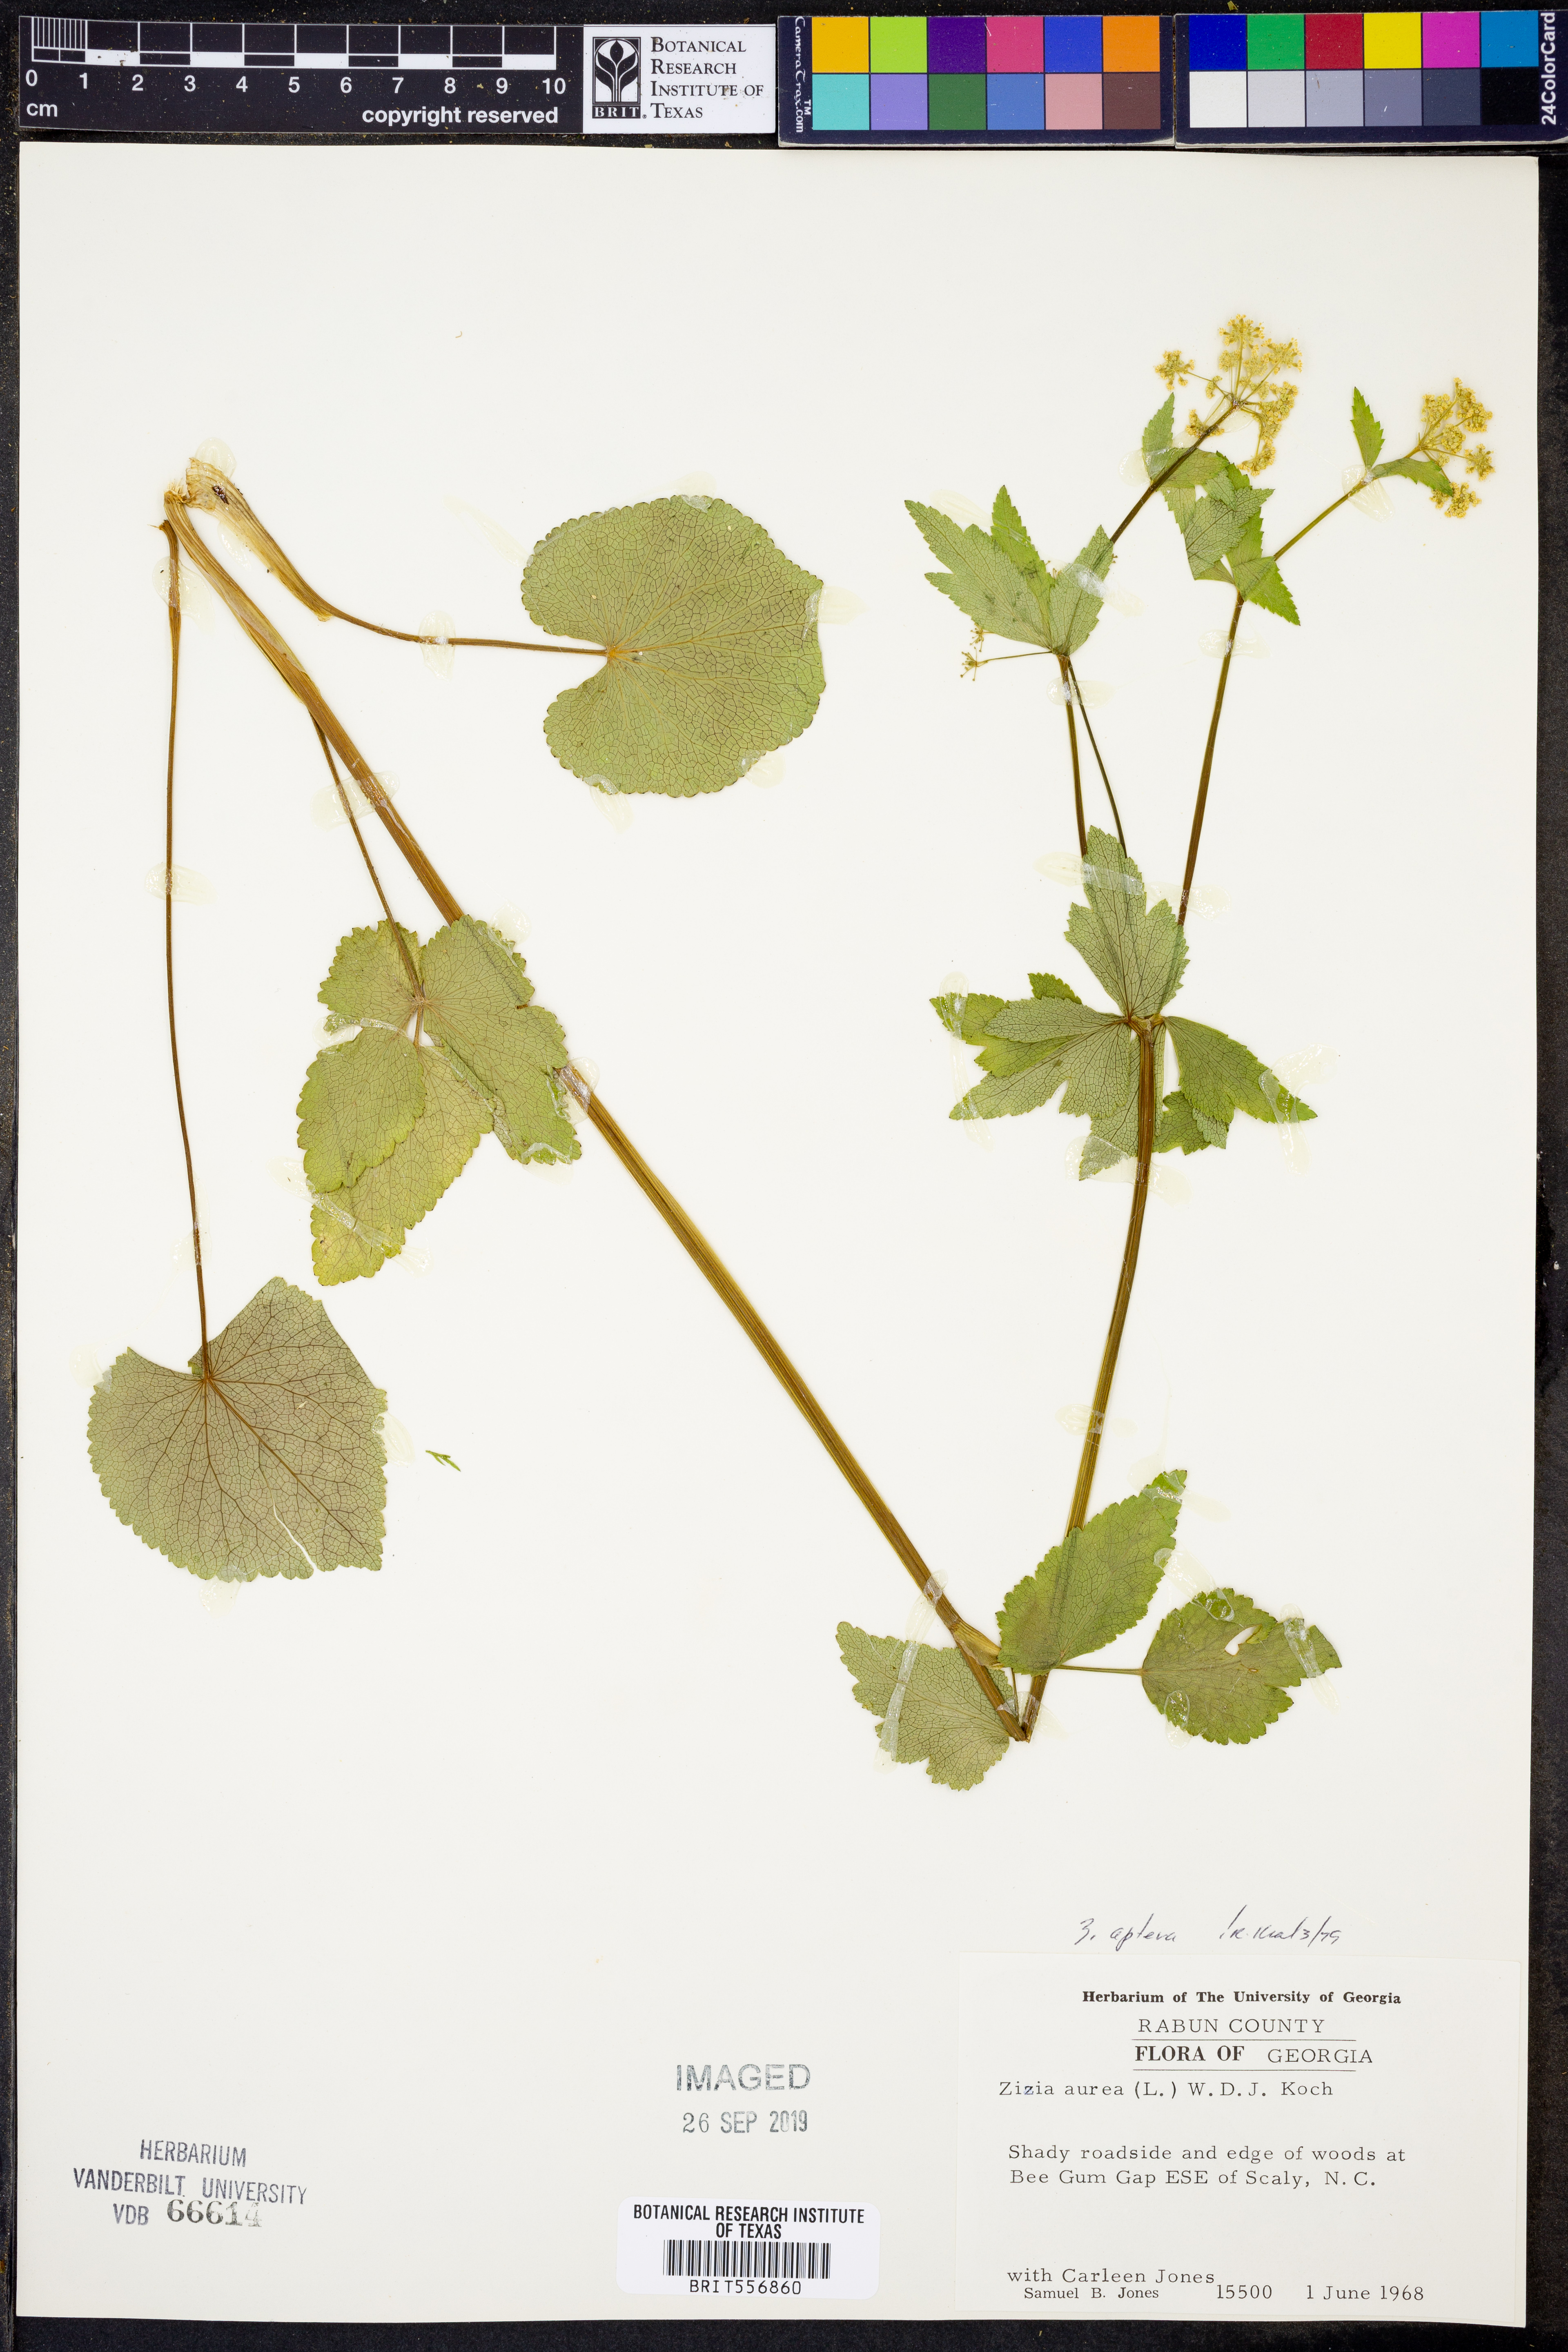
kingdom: Plantae
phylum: Tracheophyta
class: Magnoliopsida
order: Apiales
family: Apiaceae
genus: Zizia
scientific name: Zizia aptera
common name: Heart-leaved alexanders
